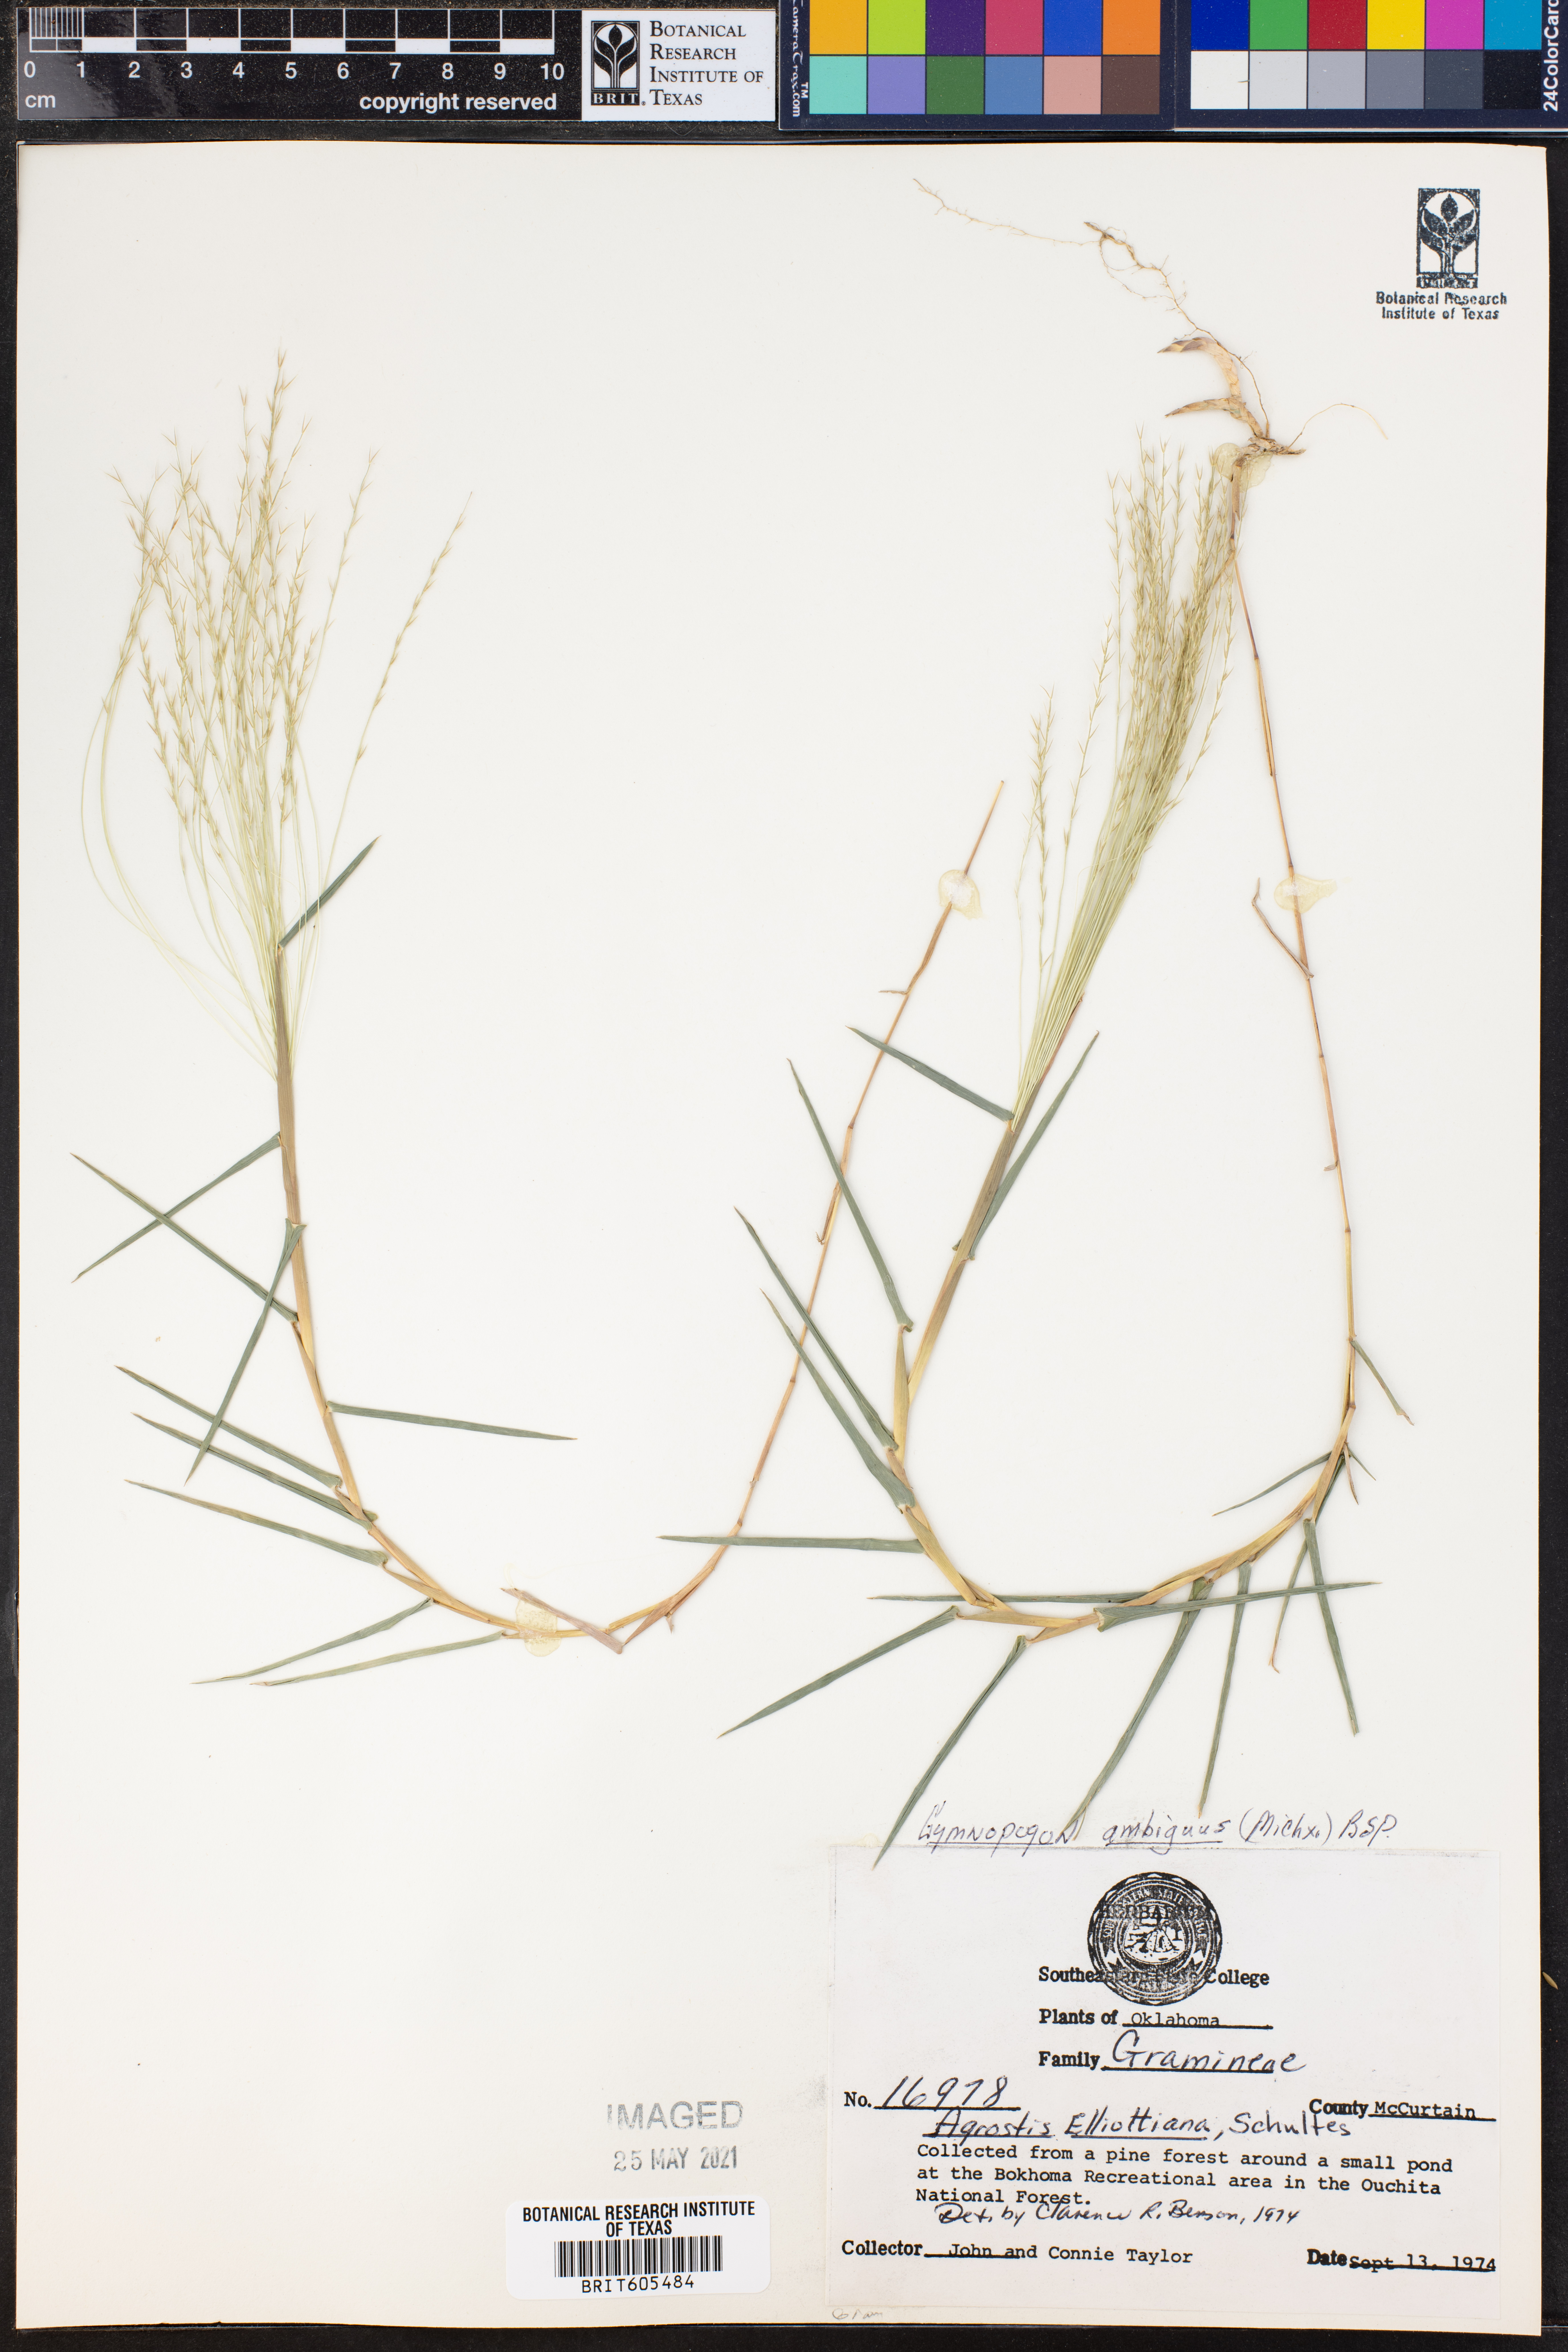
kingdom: Plantae
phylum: Tracheophyta
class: Liliopsida
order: Poales
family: Poaceae
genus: Gymnopogon
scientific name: Gymnopogon ambiguus
